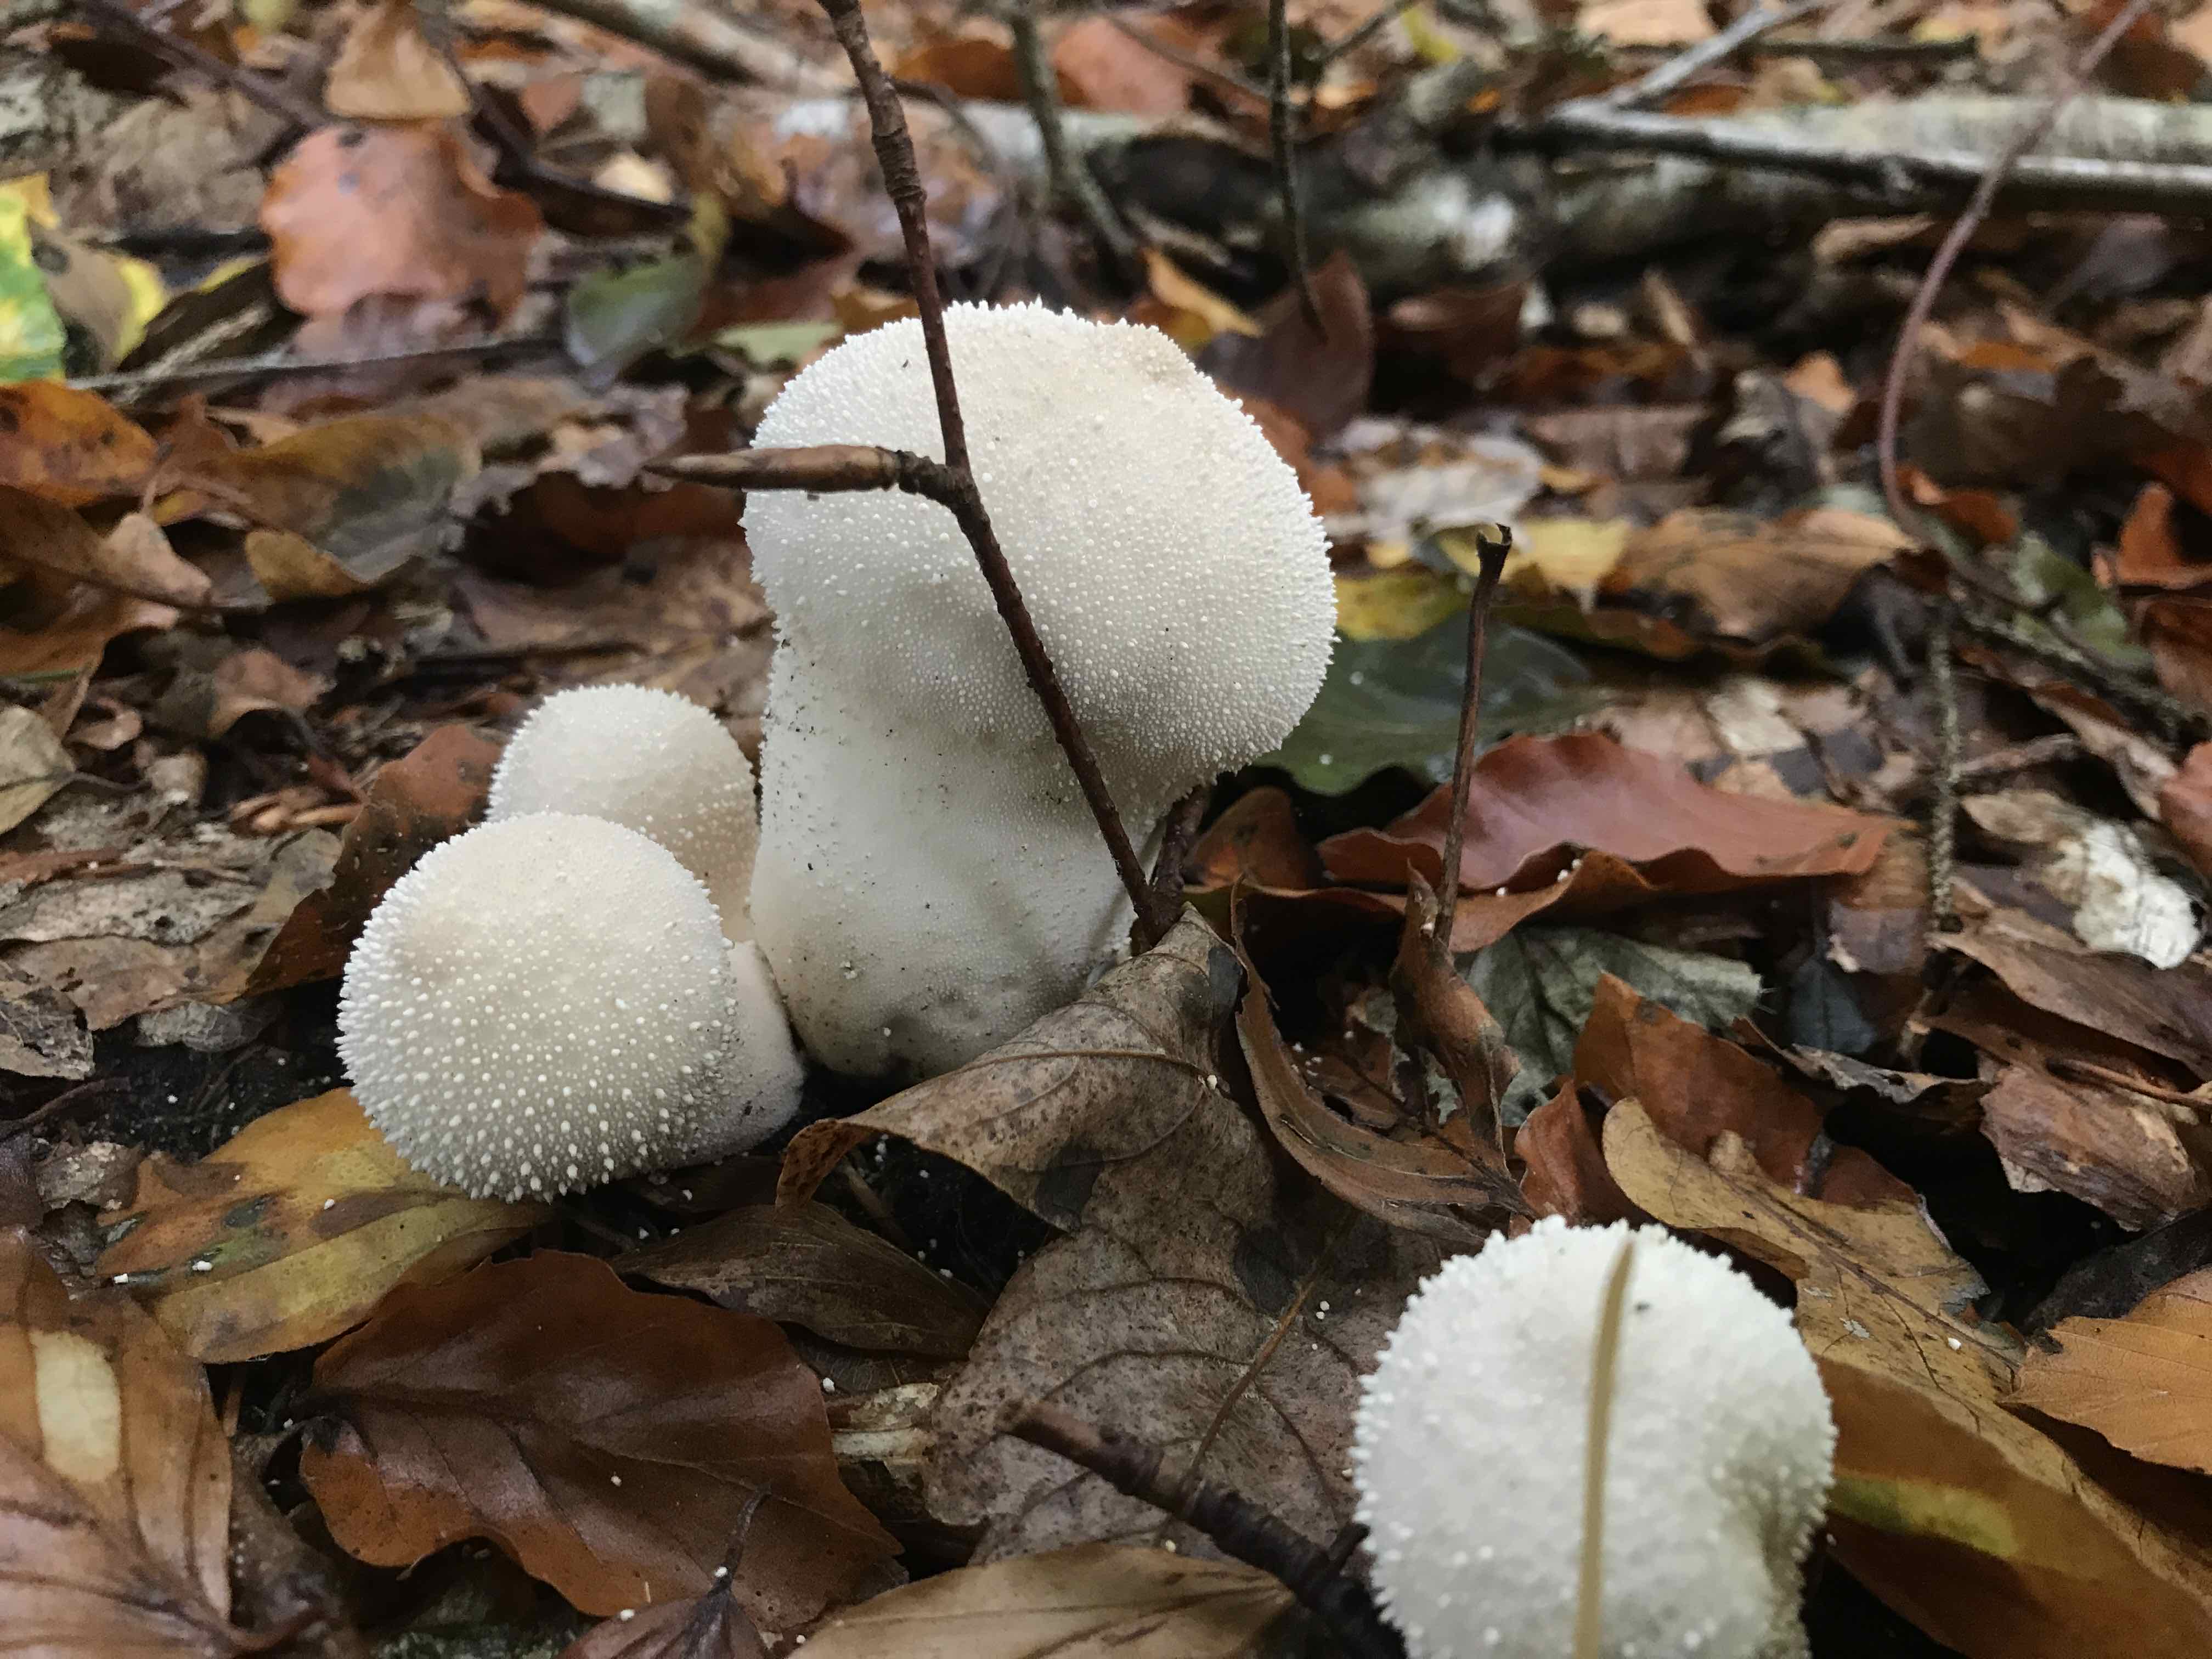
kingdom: Fungi
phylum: Basidiomycota
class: Agaricomycetes
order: Agaricales
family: Lycoperdaceae
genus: Lycoperdon
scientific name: Lycoperdon perlatum
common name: krystal-støvbold
